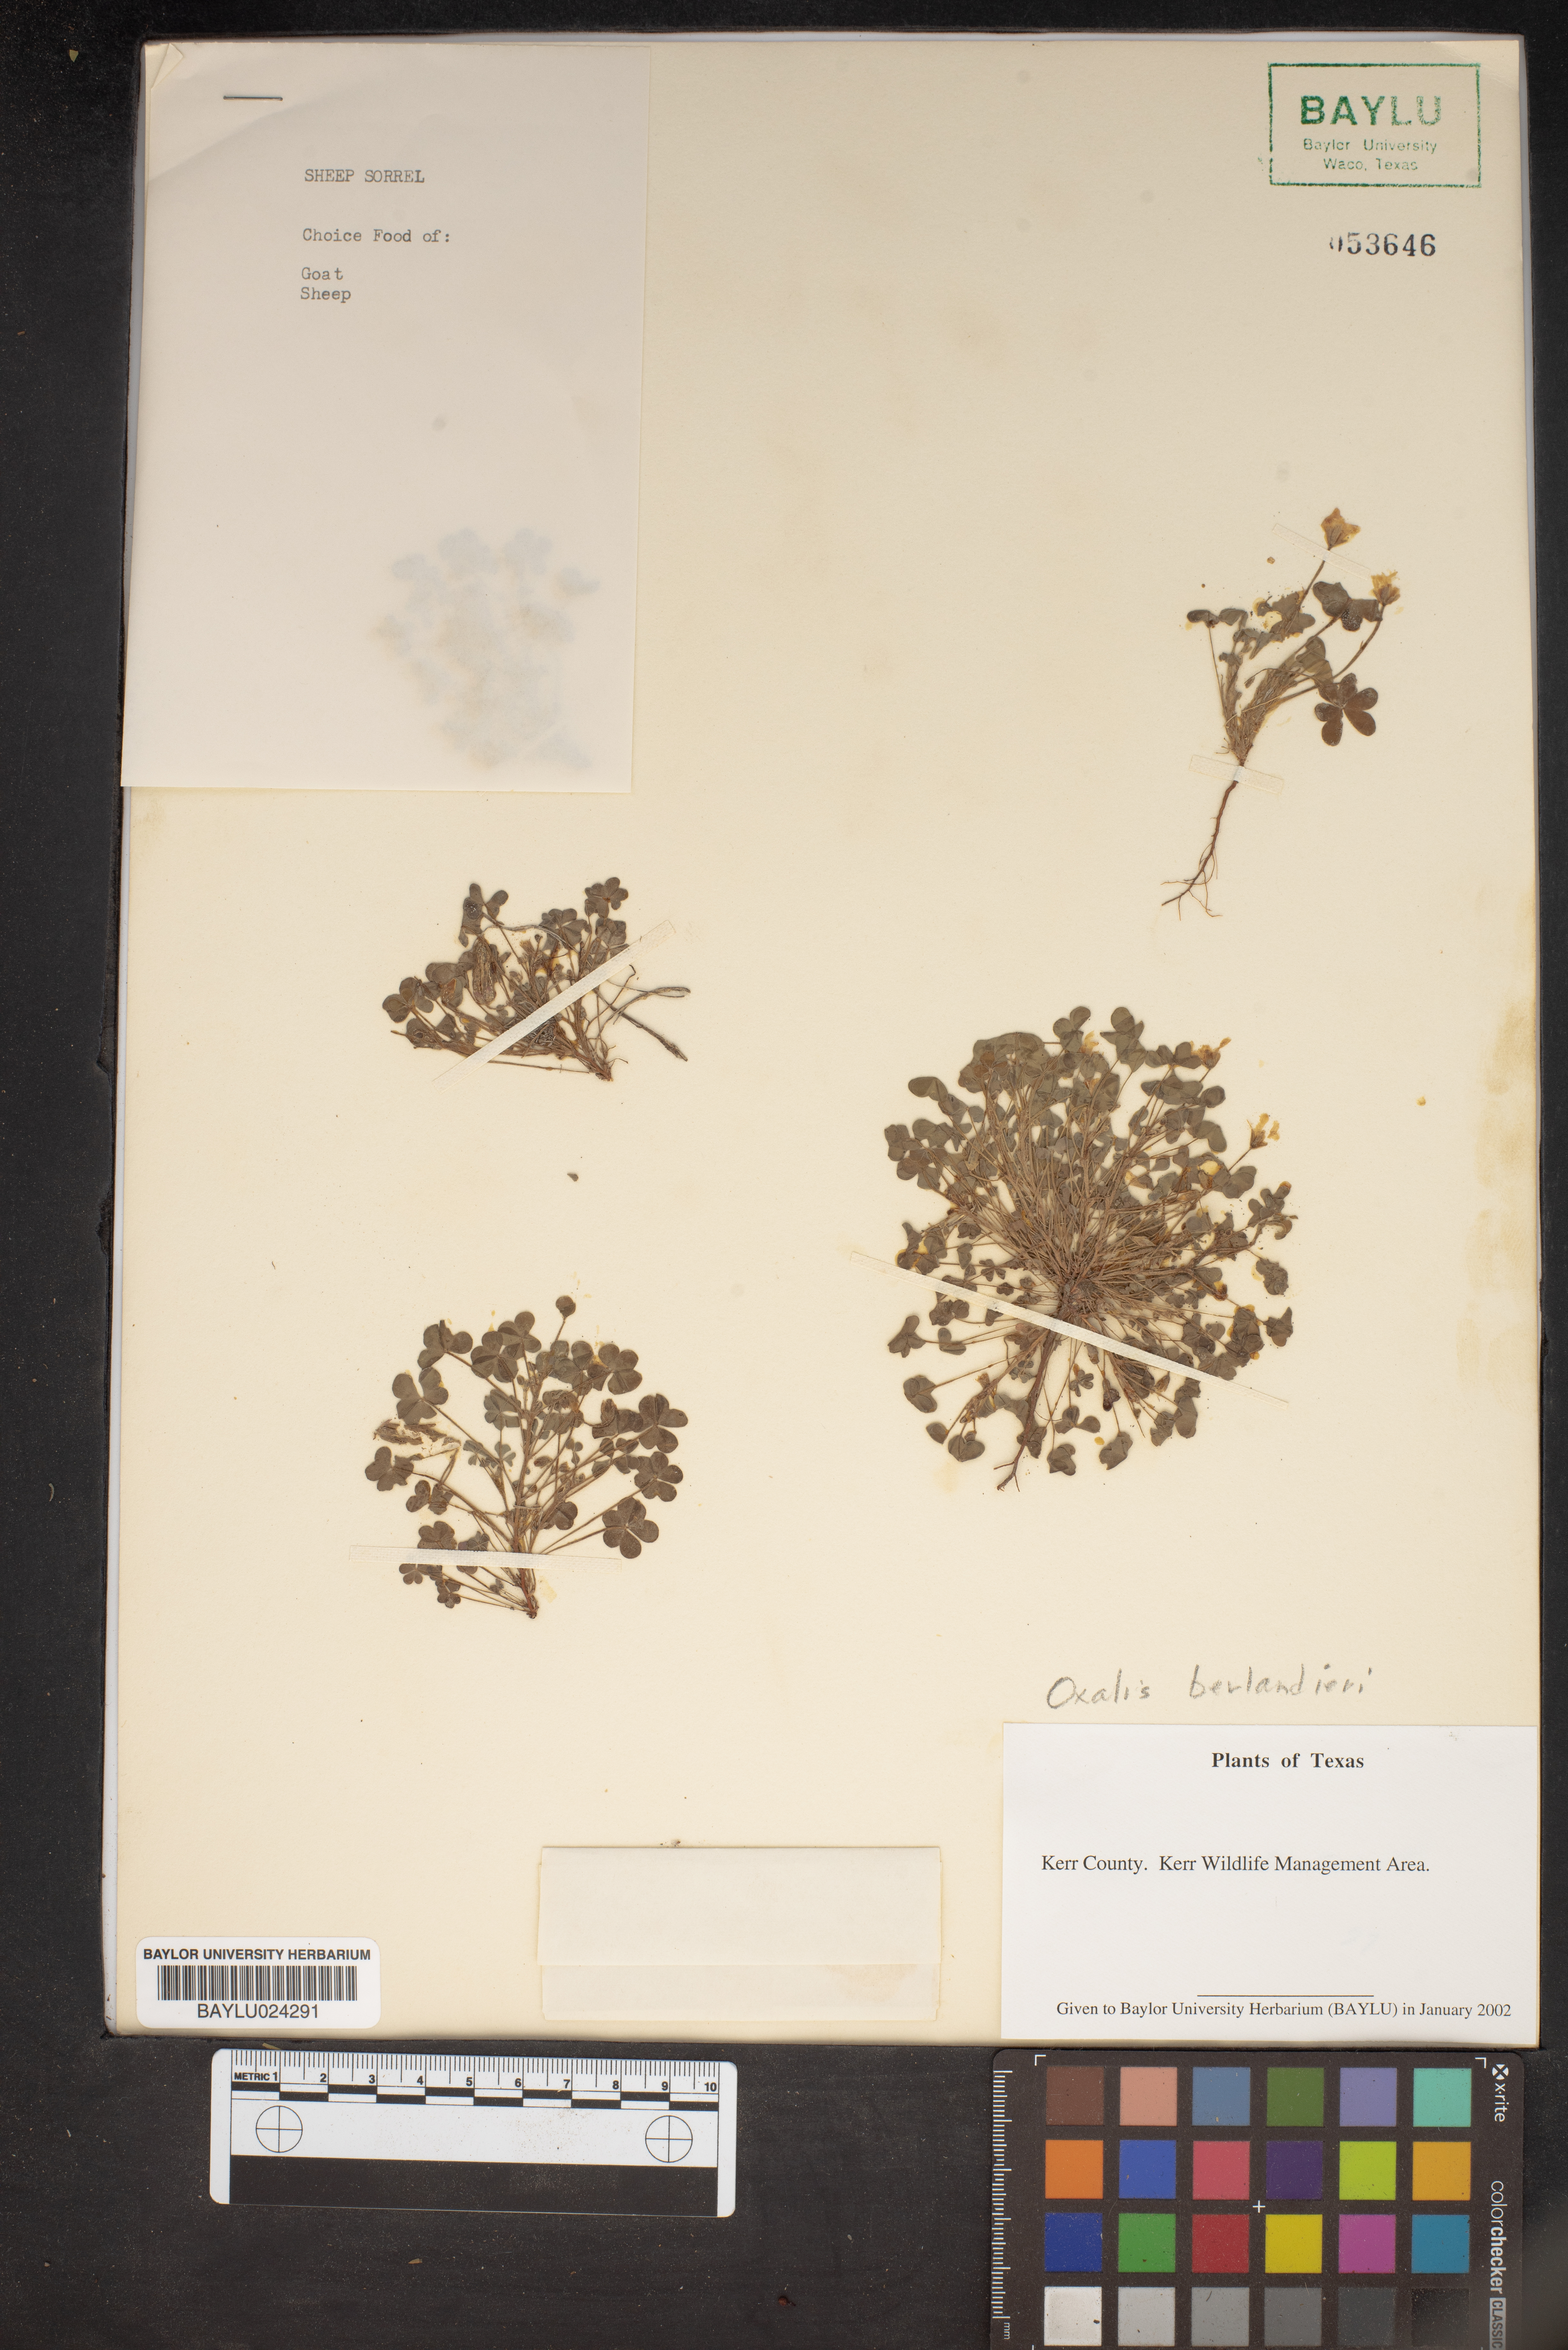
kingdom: Plantae
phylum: Tracheophyta
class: Magnoliopsida
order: Oxalidales
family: Oxalidaceae
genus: Oxalis
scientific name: Oxalis frutescens
